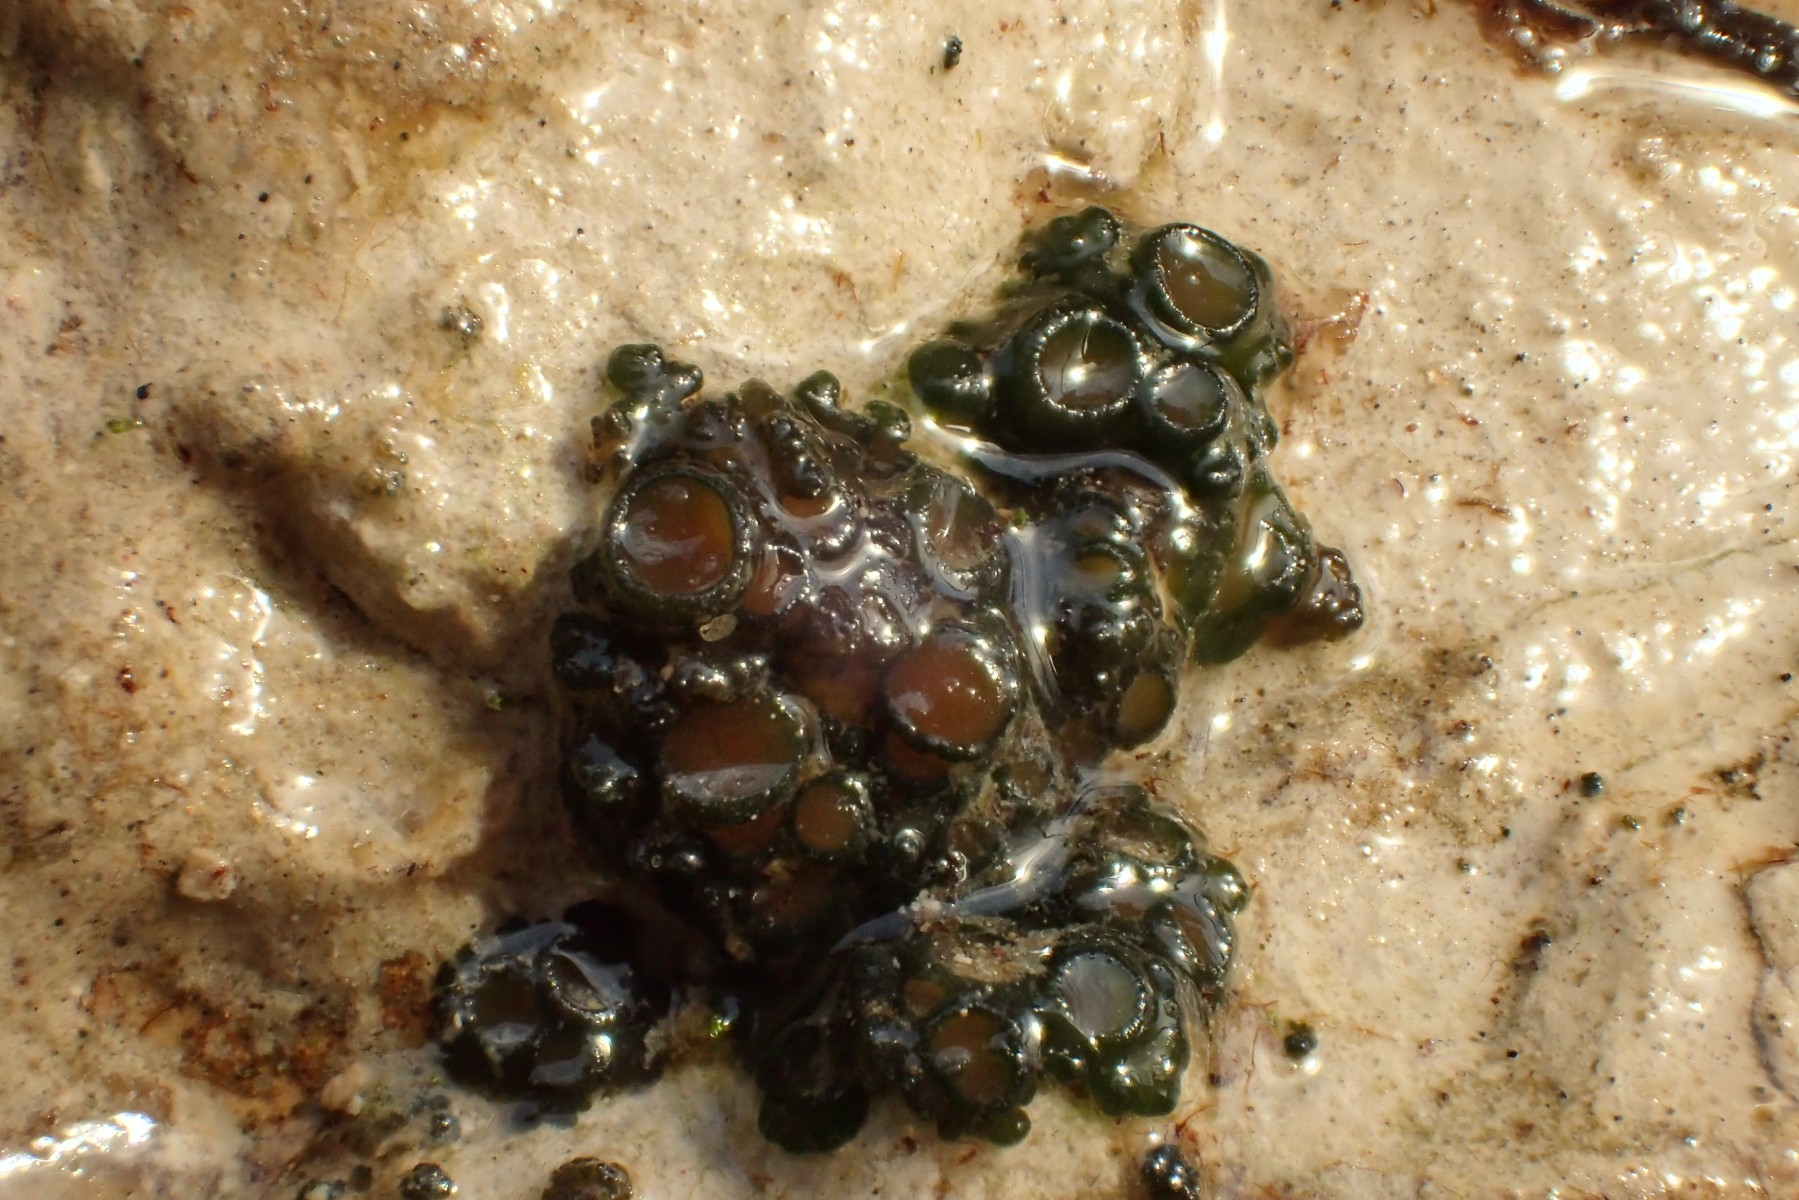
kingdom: Fungi
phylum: Ascomycota
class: Lecanoromycetes
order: Peltigerales
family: Collemataceae
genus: Enchylium
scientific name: Enchylium limosum
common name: dynd-bævrelav
